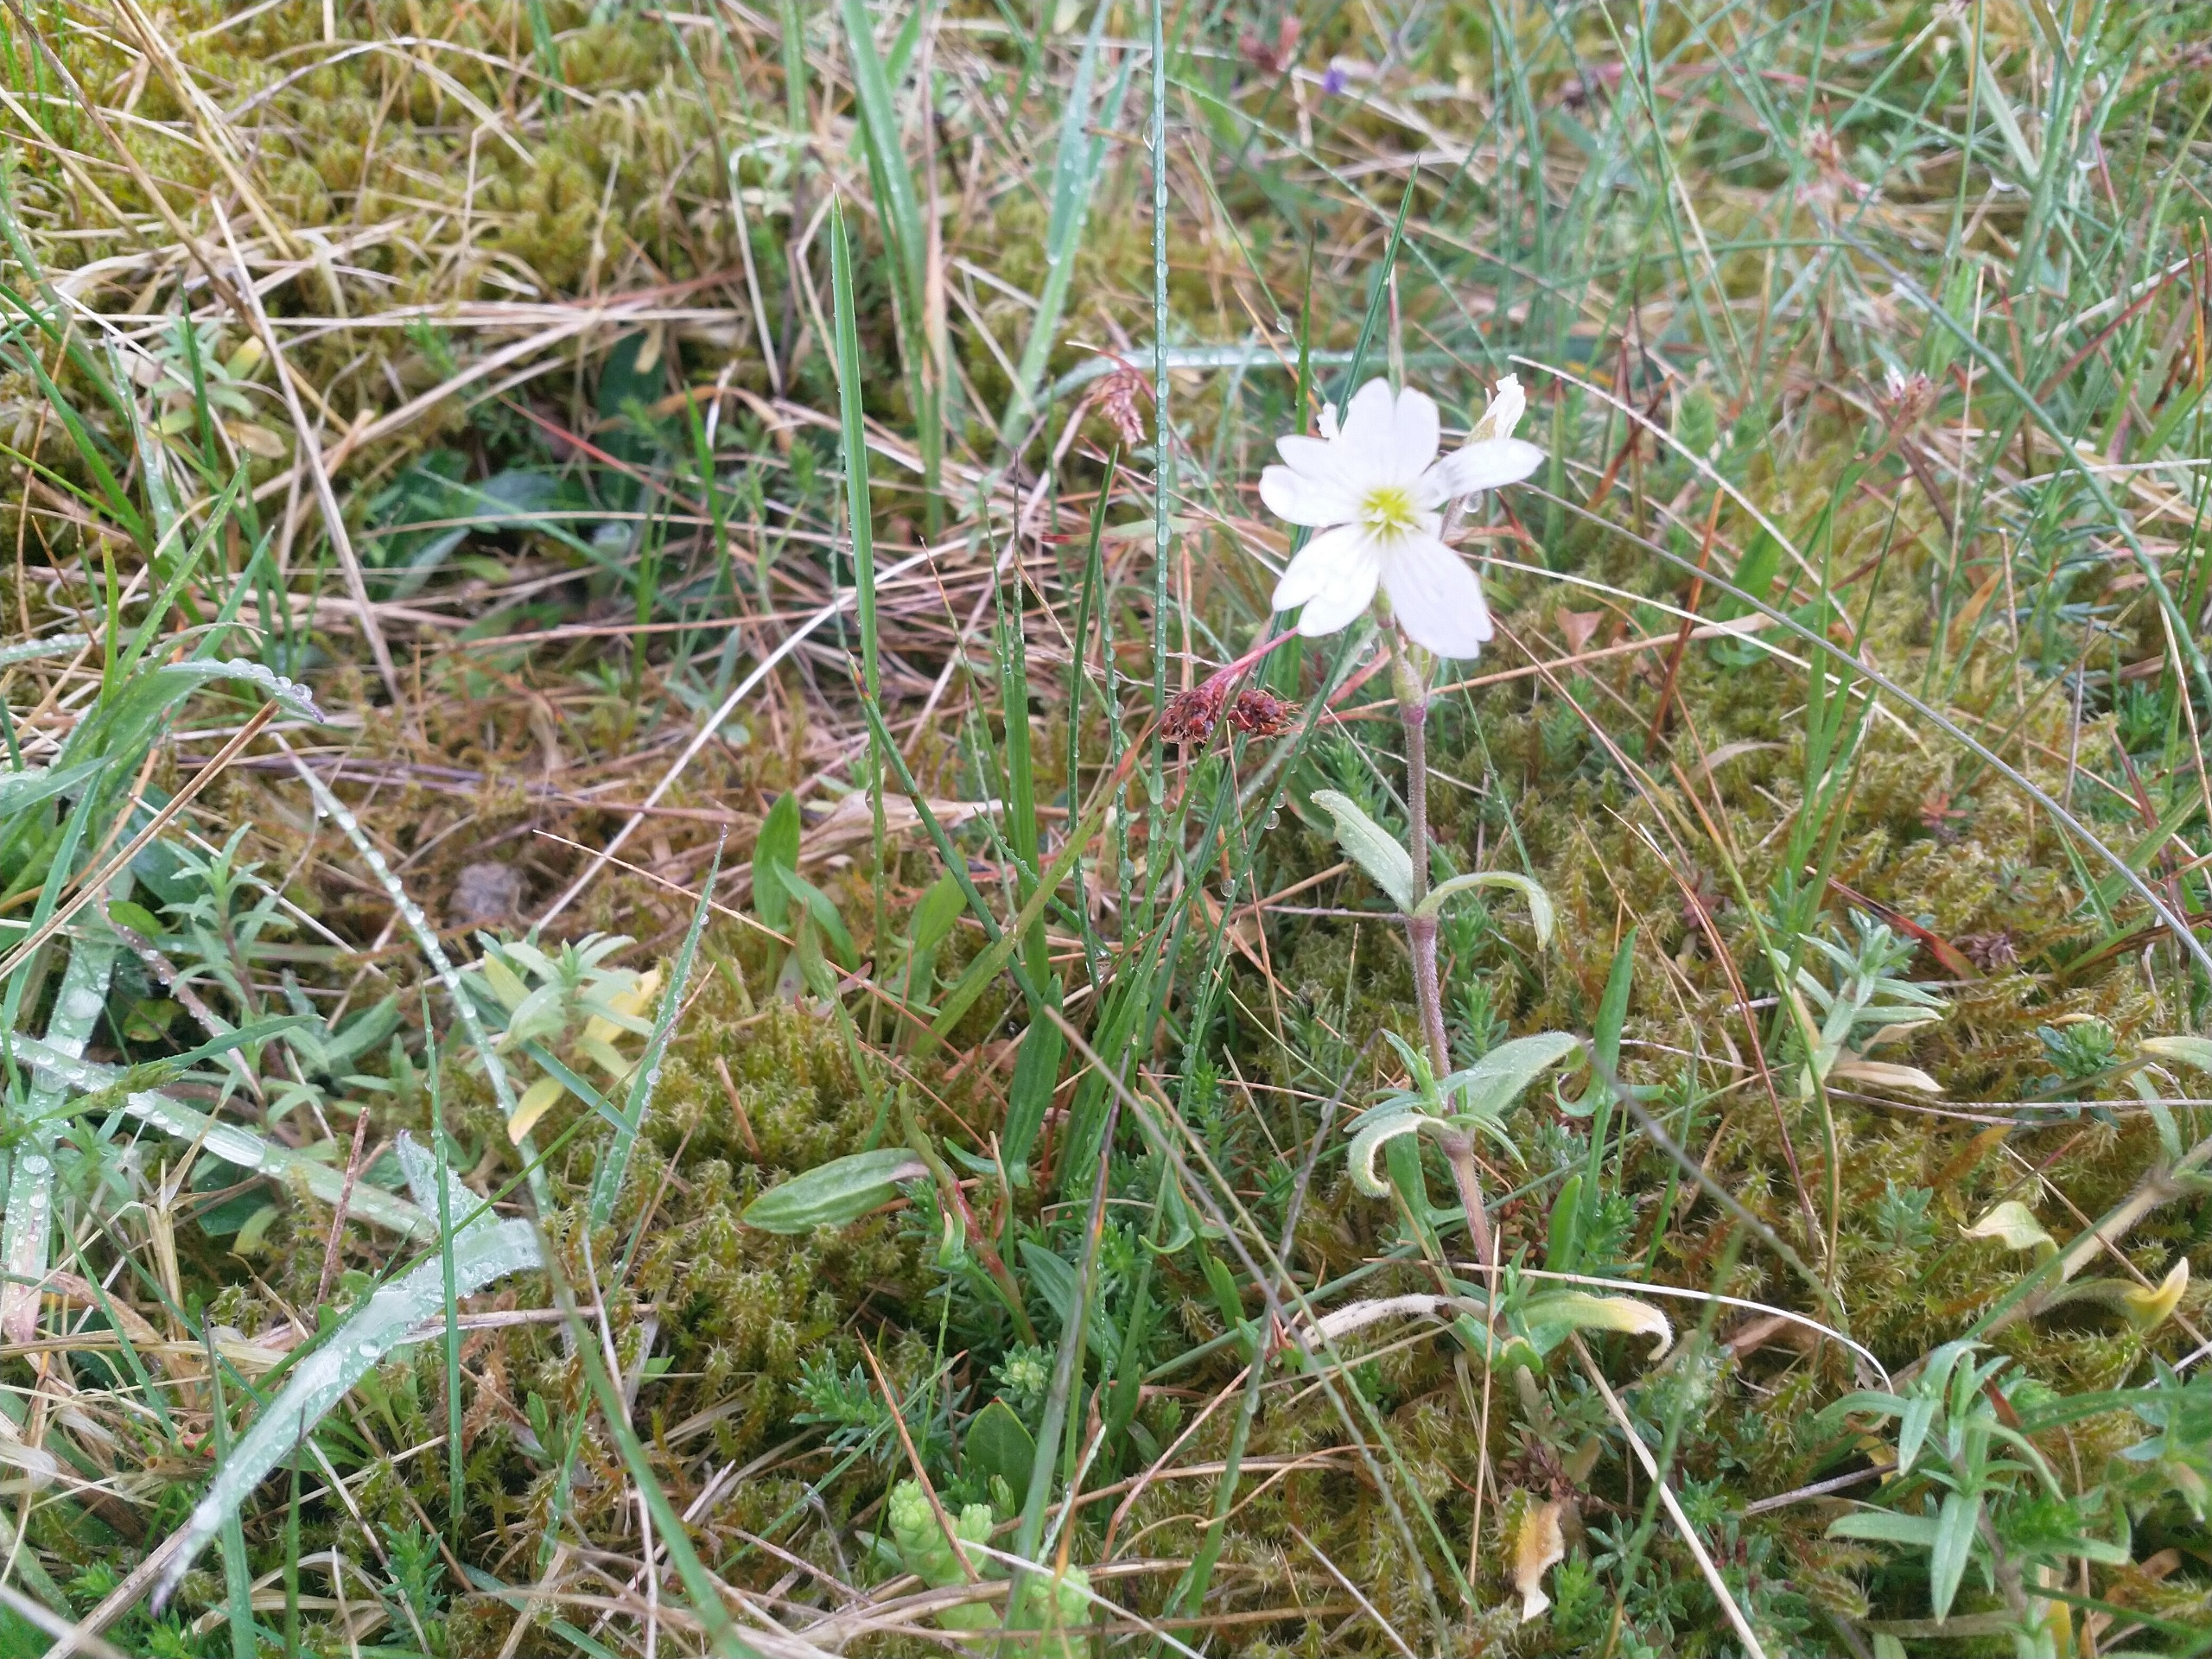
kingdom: Plantae
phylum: Tracheophyta
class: Magnoliopsida
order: Caryophyllales
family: Caryophyllaceae
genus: Cerastium
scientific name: Cerastium arvense
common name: Storblomstret hønsetarm
